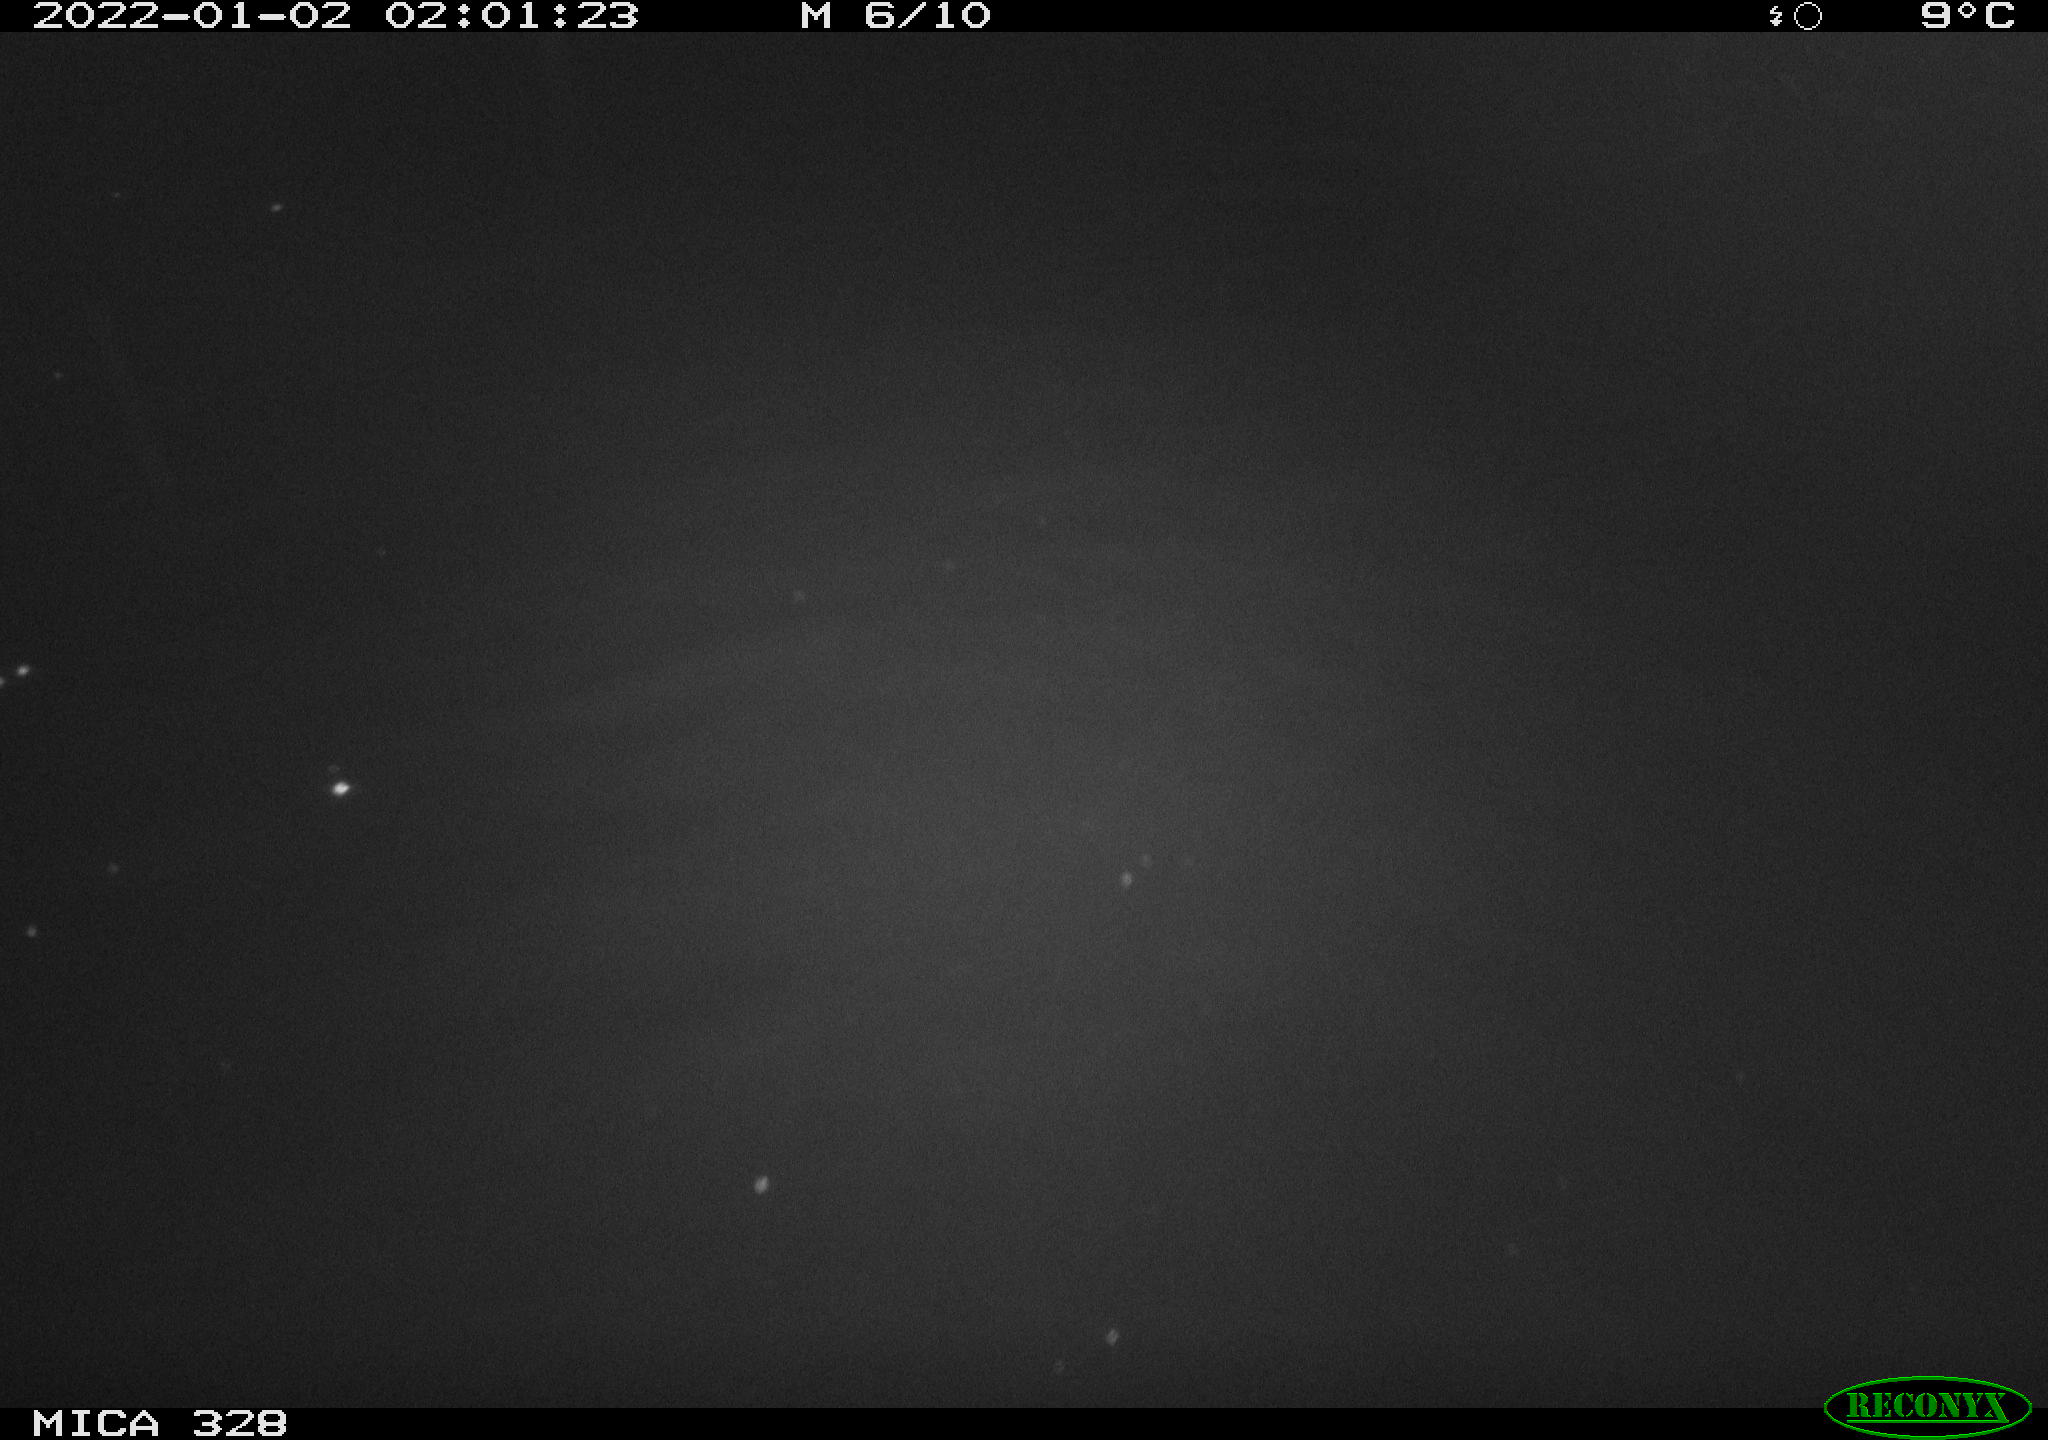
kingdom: Animalia
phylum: Chordata
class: Aves
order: Anseriformes
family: Anatidae
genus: Anas
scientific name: Anas platyrhynchos
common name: Mallard
